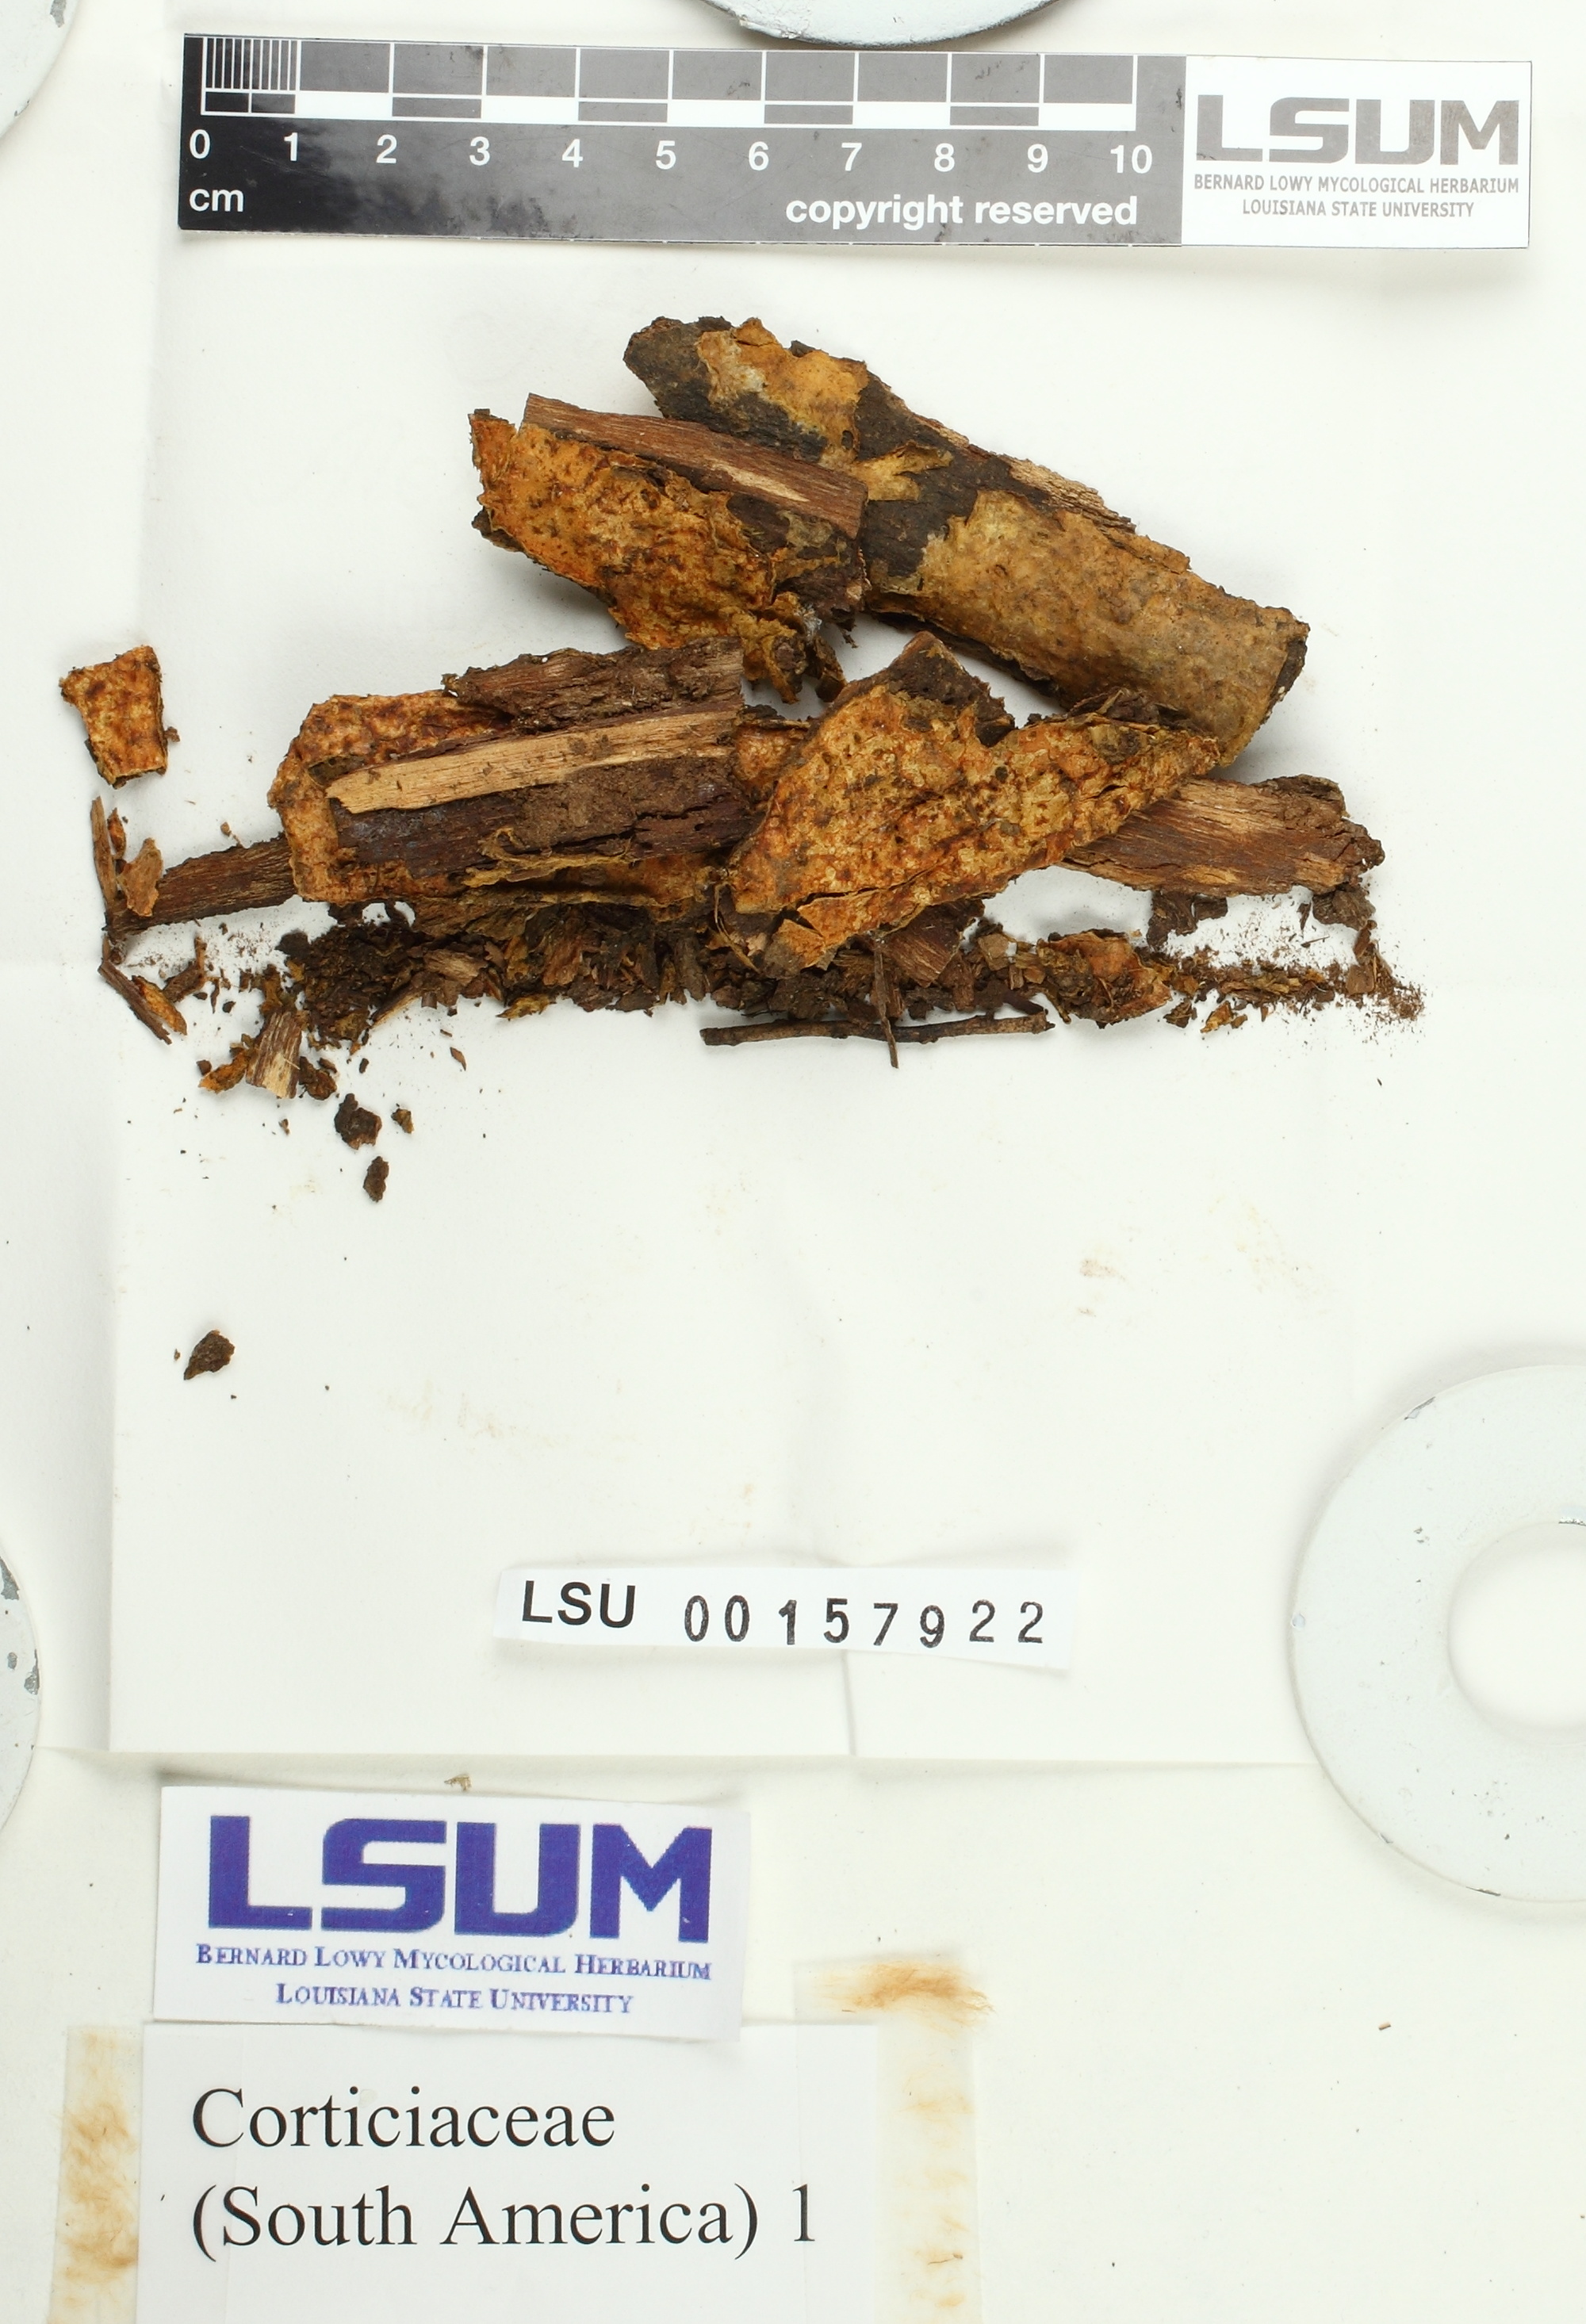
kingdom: Fungi
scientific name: Fungi
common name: Fungi
